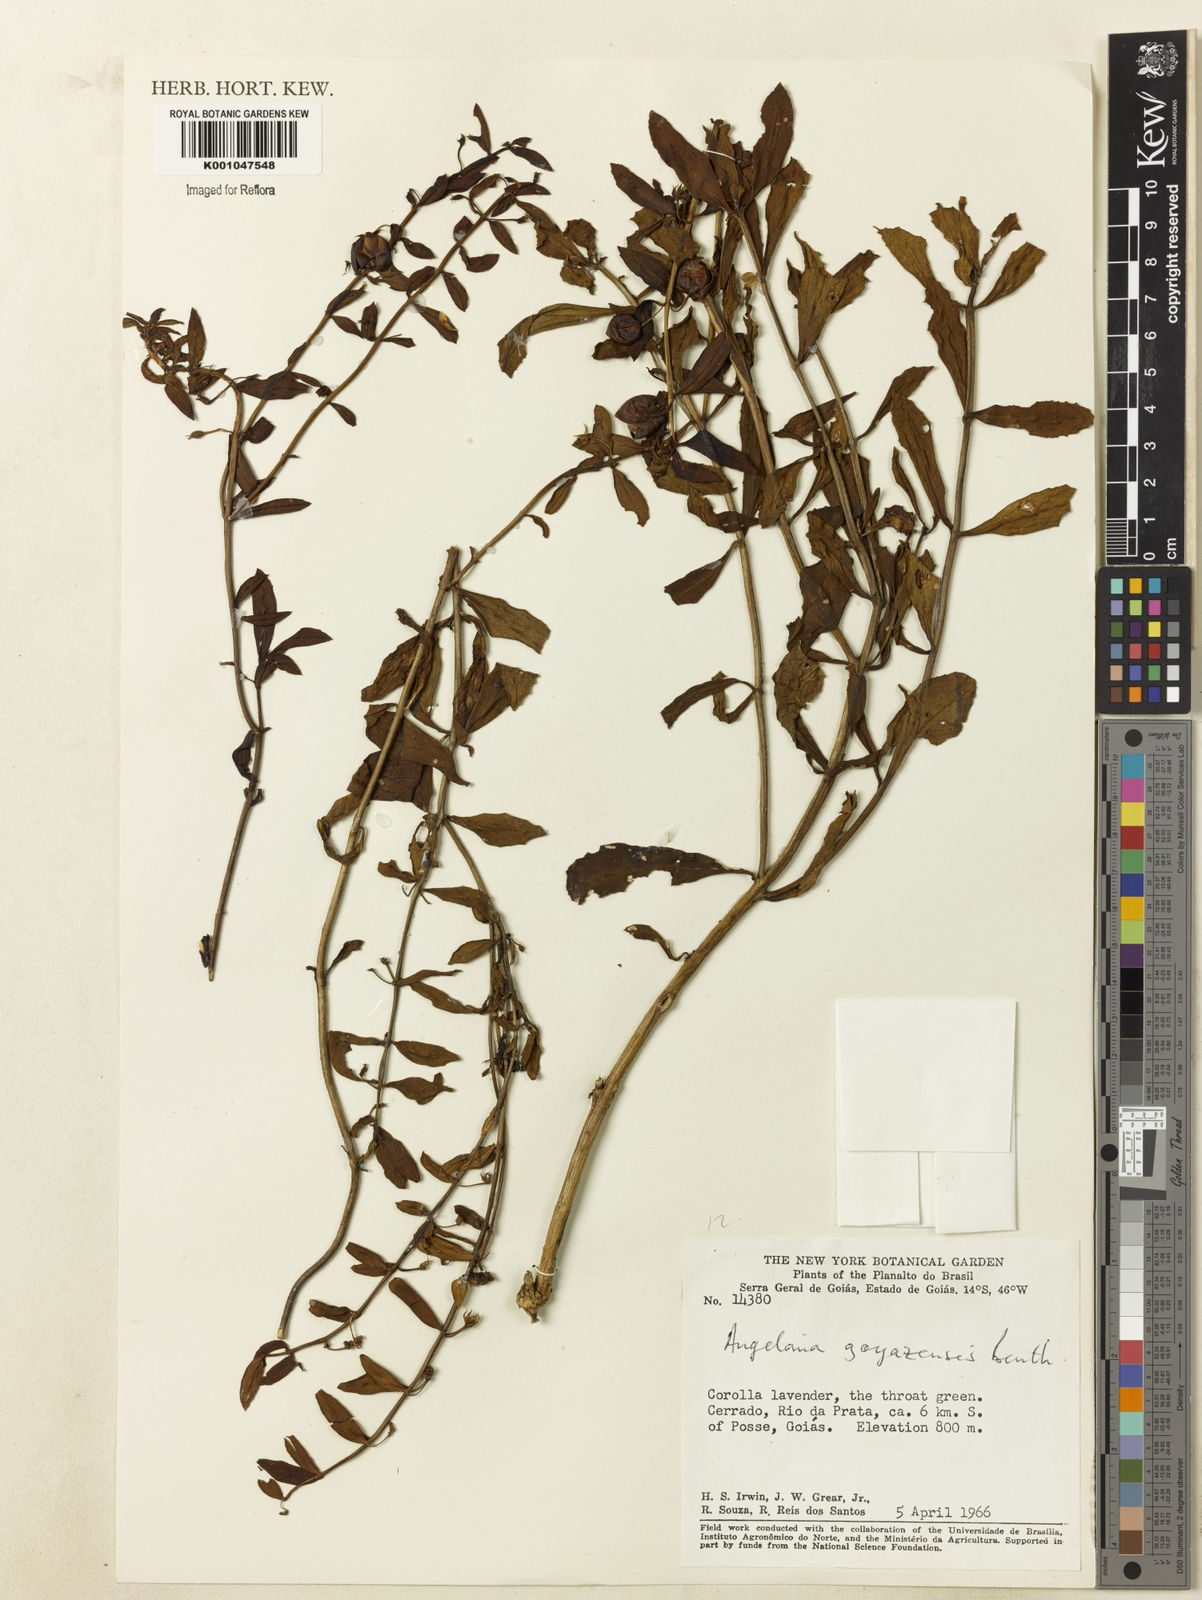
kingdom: Plantae
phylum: Tracheophyta
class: Magnoliopsida
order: Lamiales
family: Plantaginaceae
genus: Angelonia
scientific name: Angelonia goyazensis
